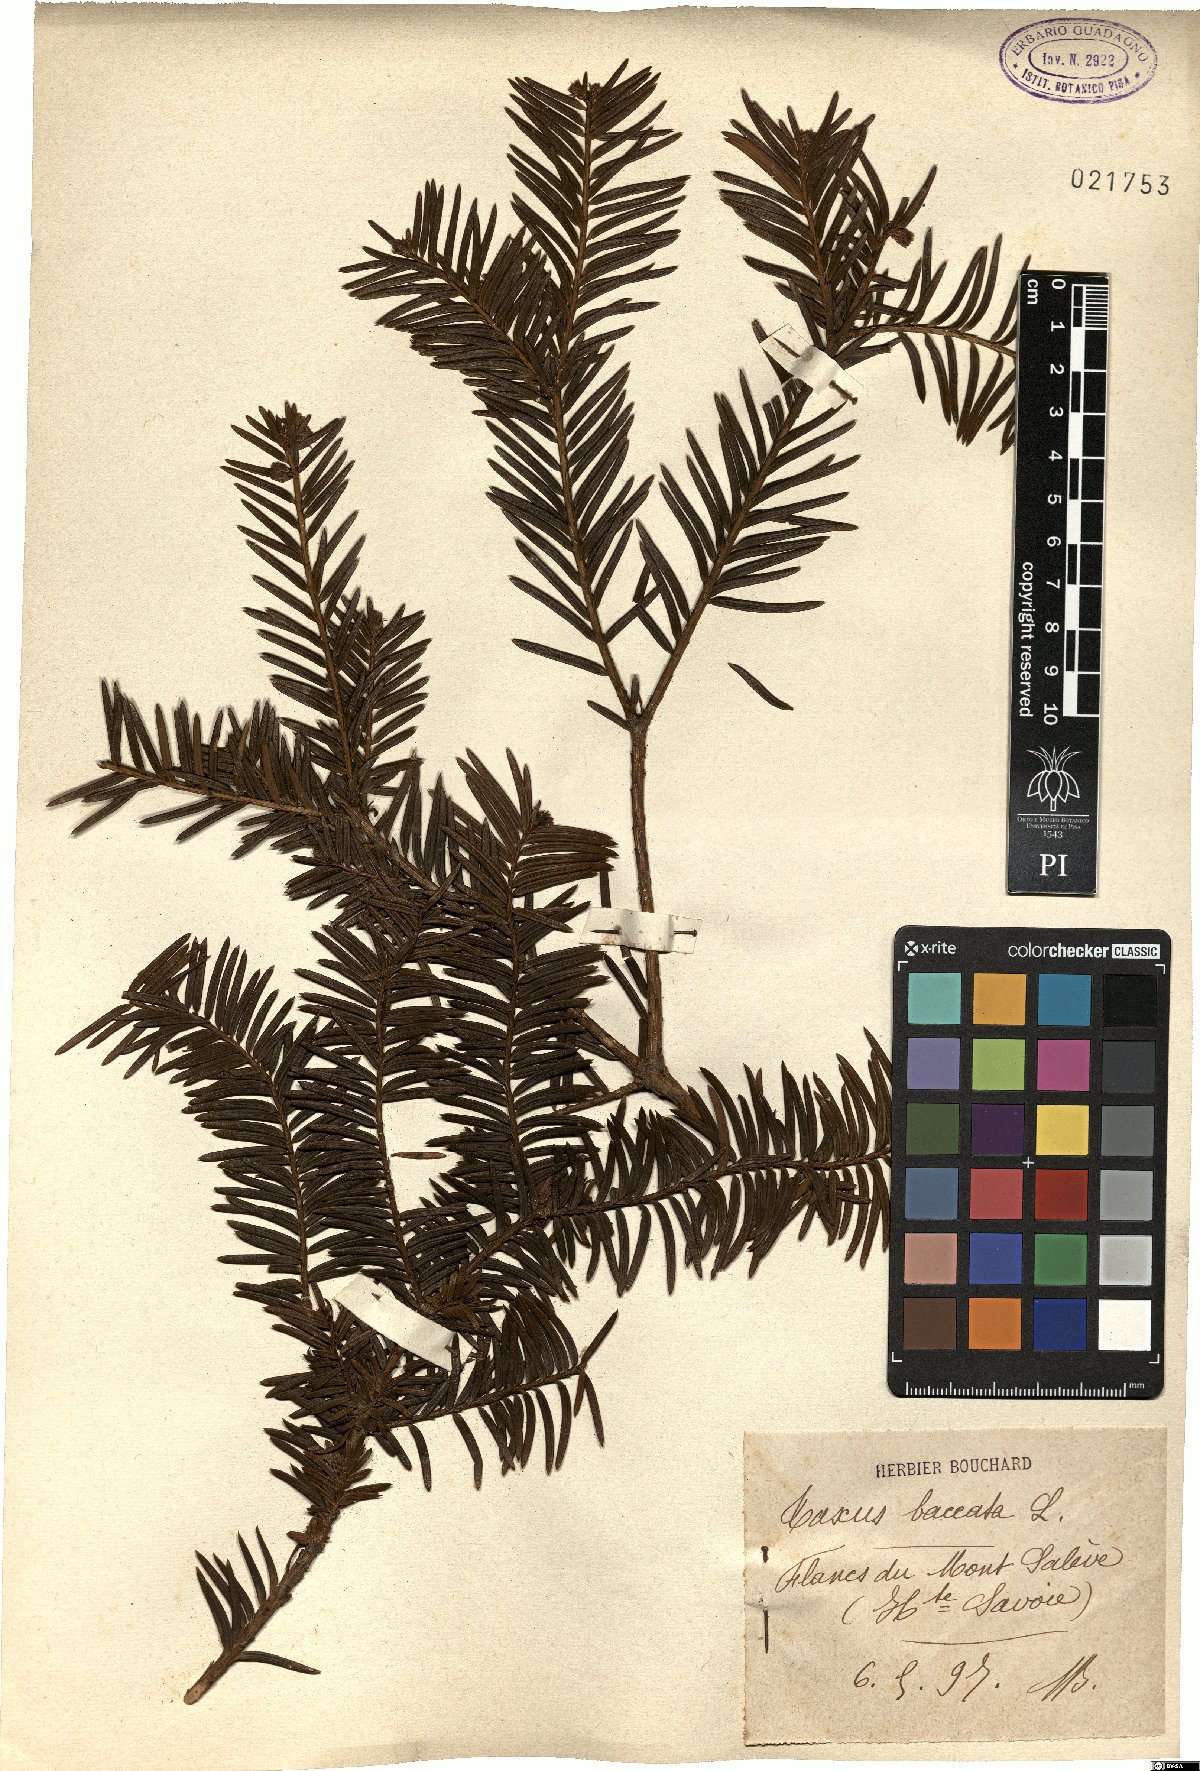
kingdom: Plantae
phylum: Tracheophyta
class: Pinopsida
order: Pinales
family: Taxaceae
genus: Taxus
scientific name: Taxus baccata
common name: Yew
